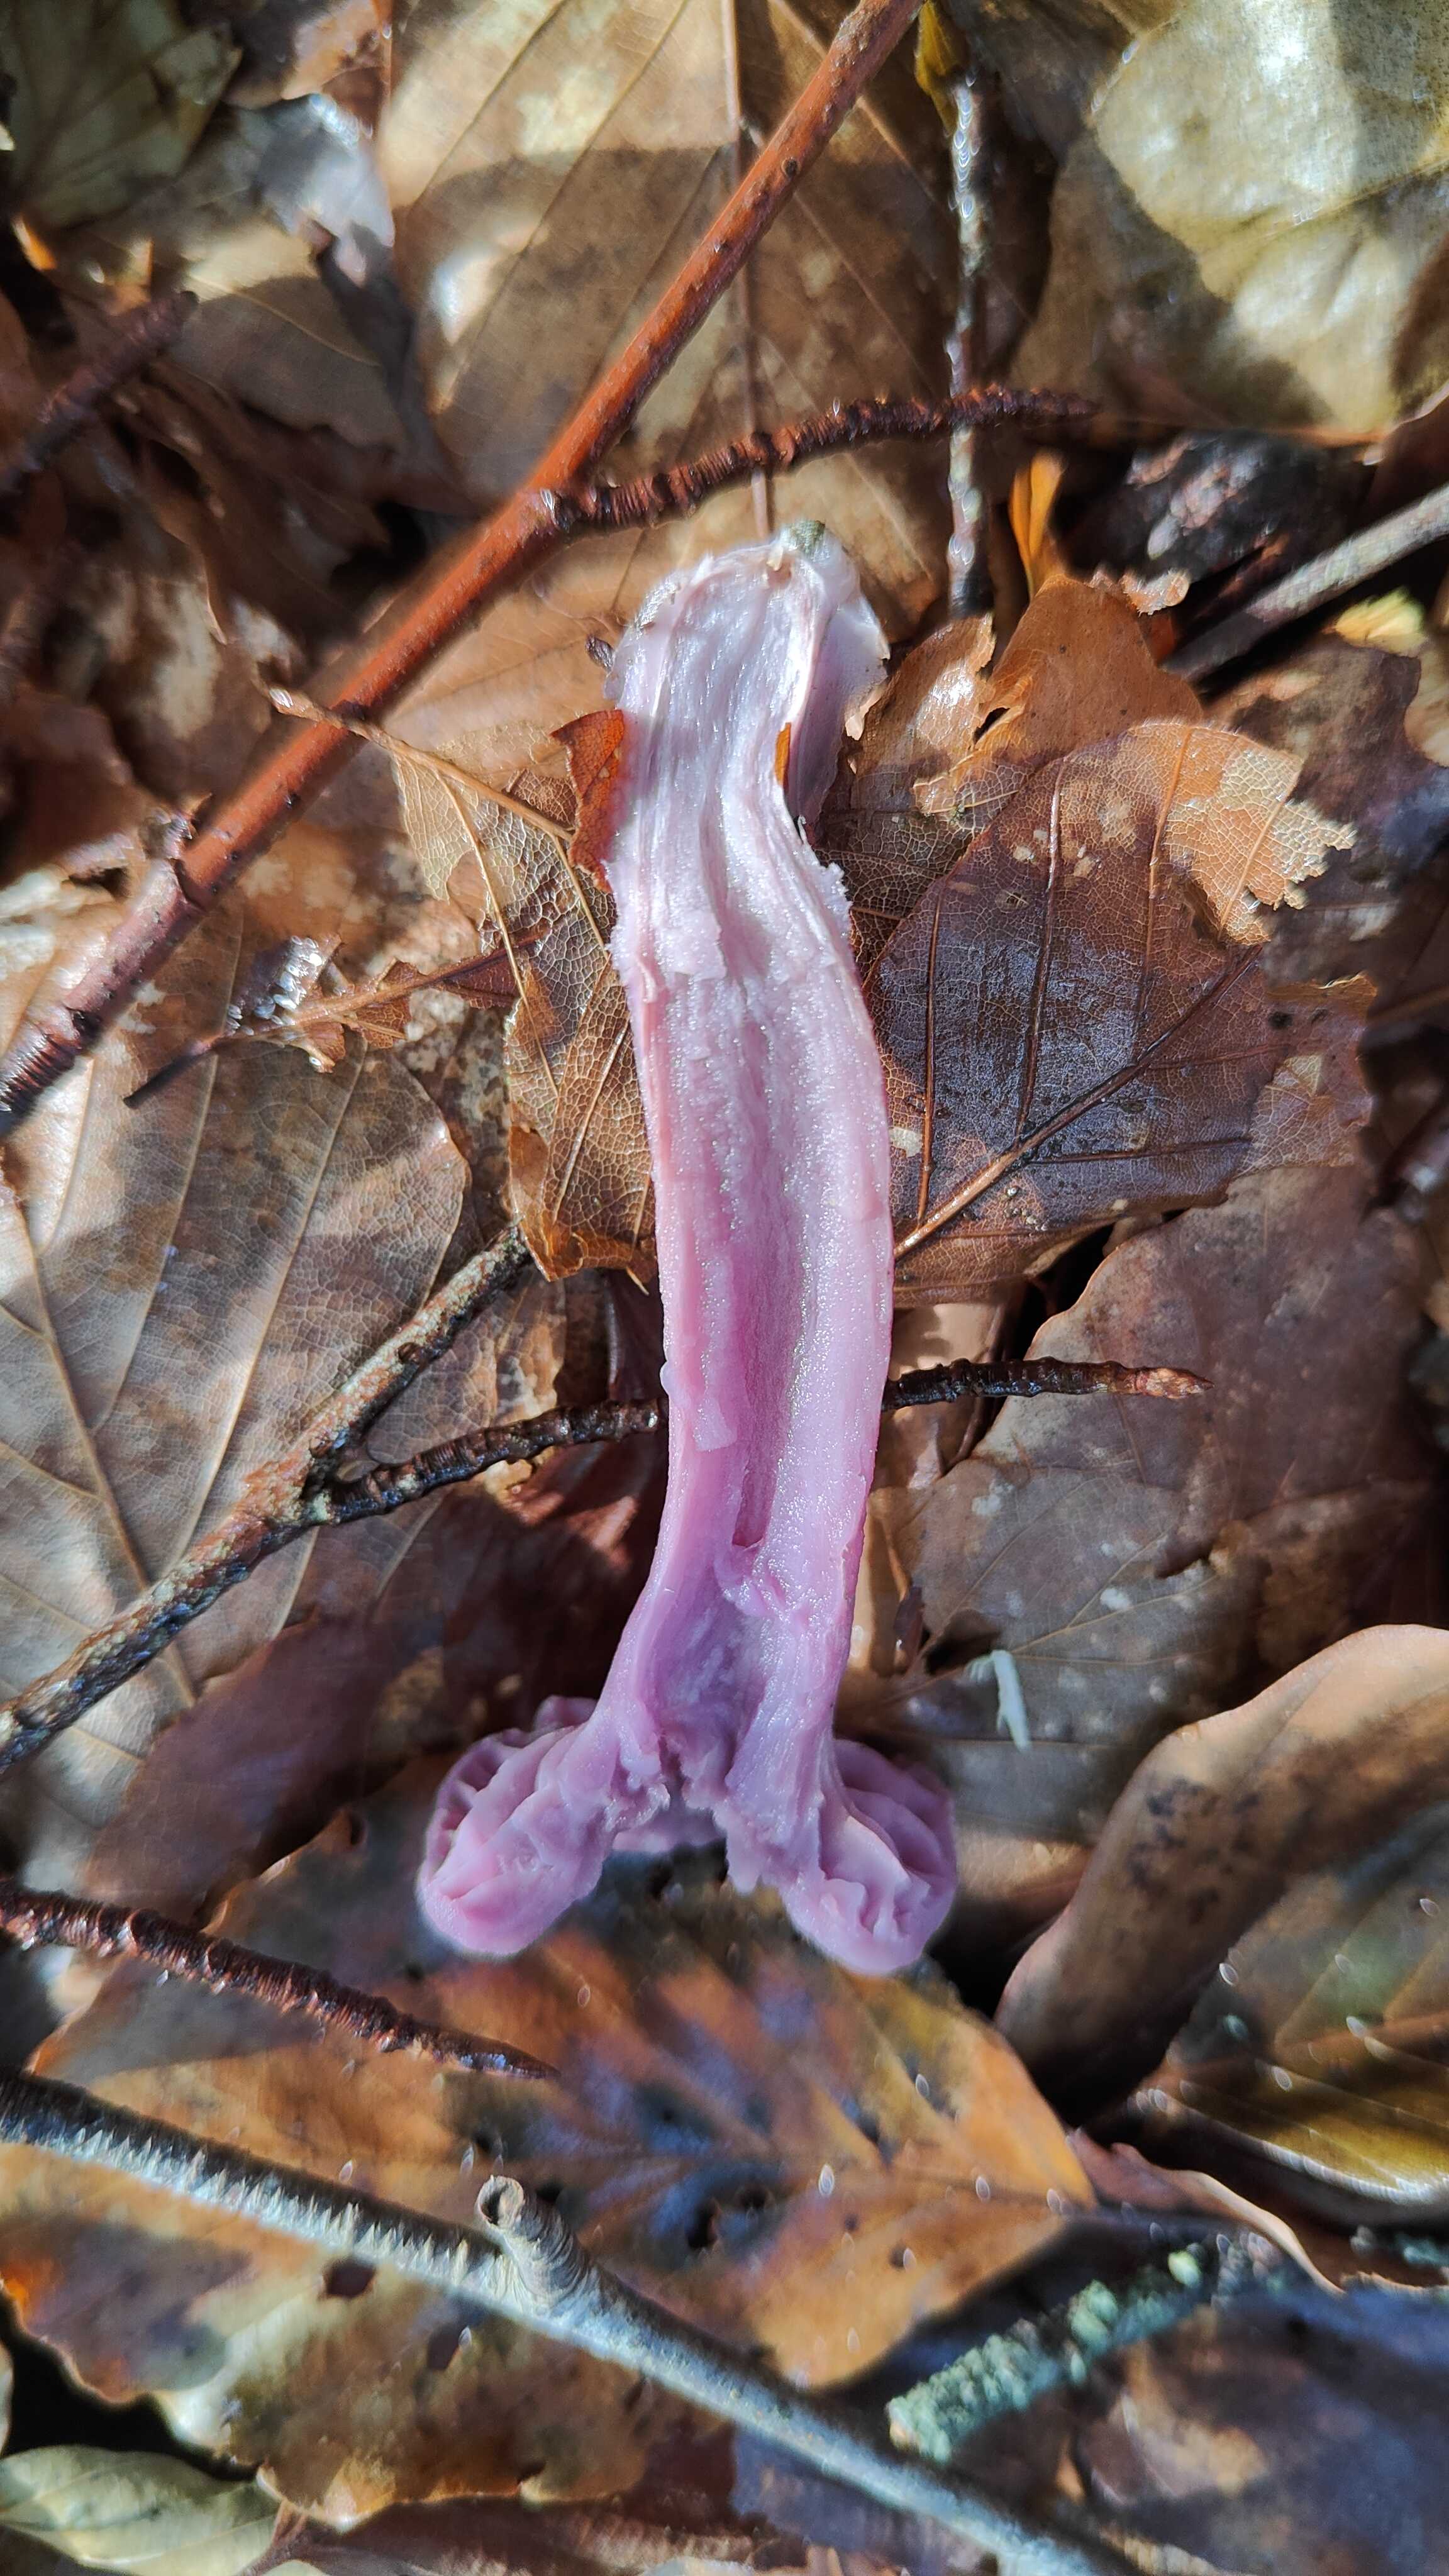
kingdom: Fungi
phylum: Basidiomycota
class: Agaricomycetes
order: Agaricales
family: Hydnangiaceae
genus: Laccaria
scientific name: Laccaria amethystina
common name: violet ametysthat
